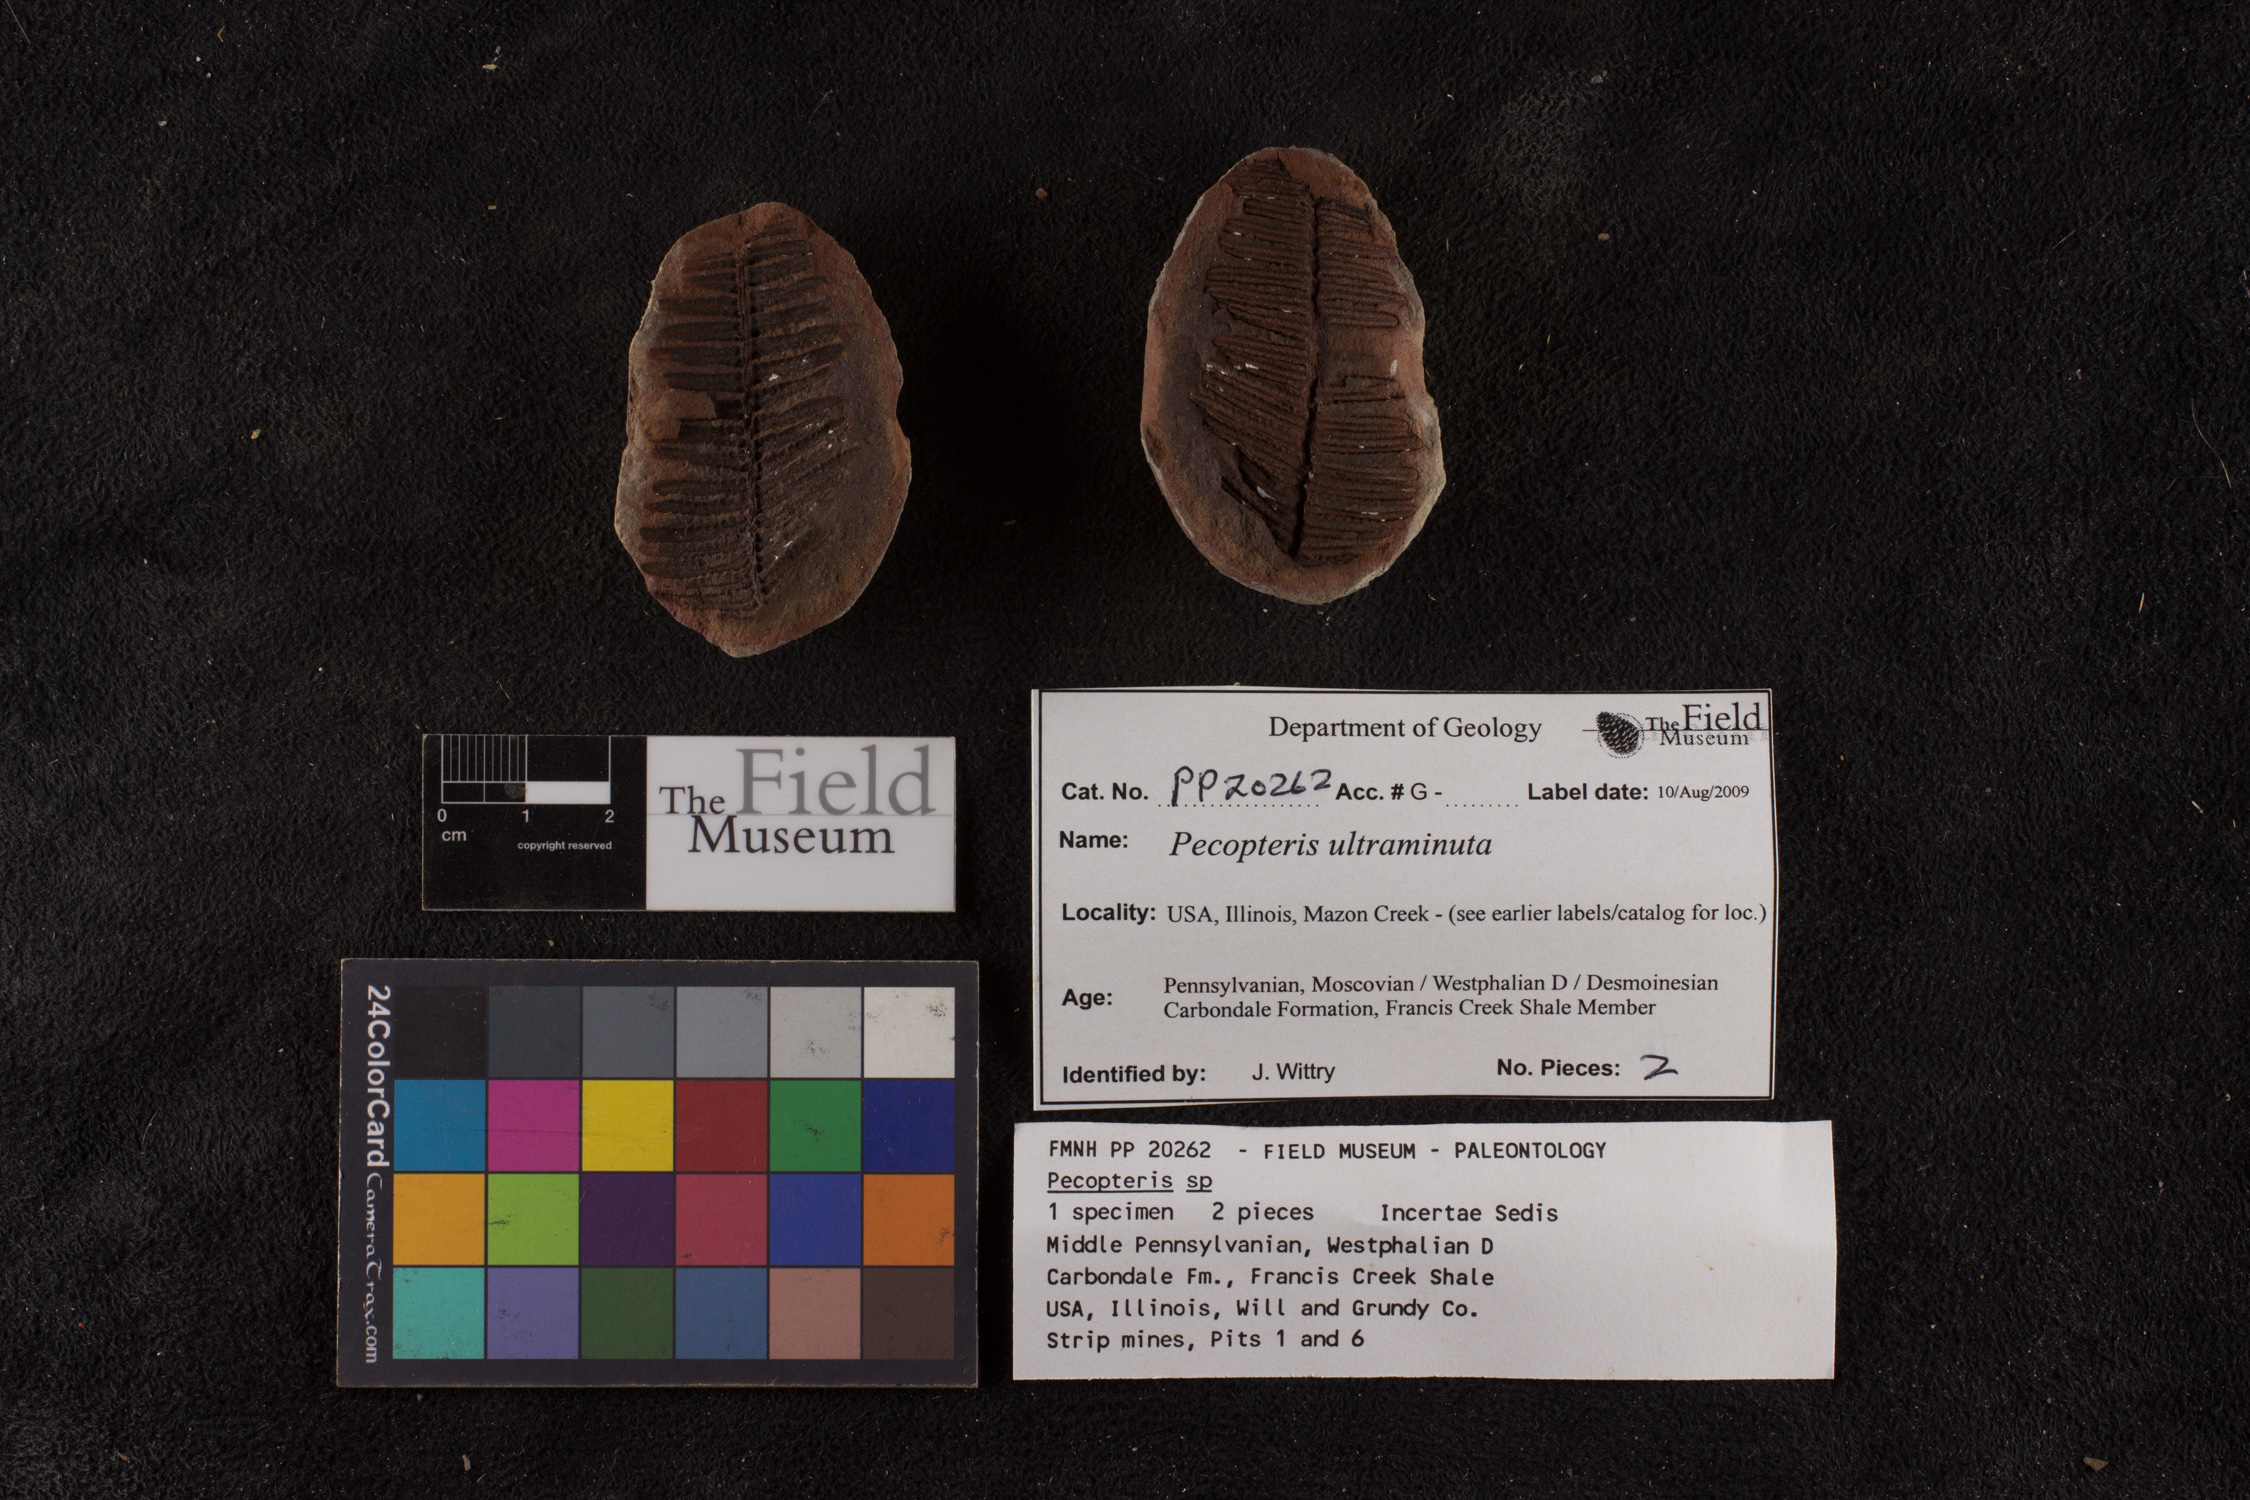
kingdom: Plantae
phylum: Tracheophyta
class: Polypodiopsida
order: Marattiales
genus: Cyathocarpus
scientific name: Cyathocarpus
